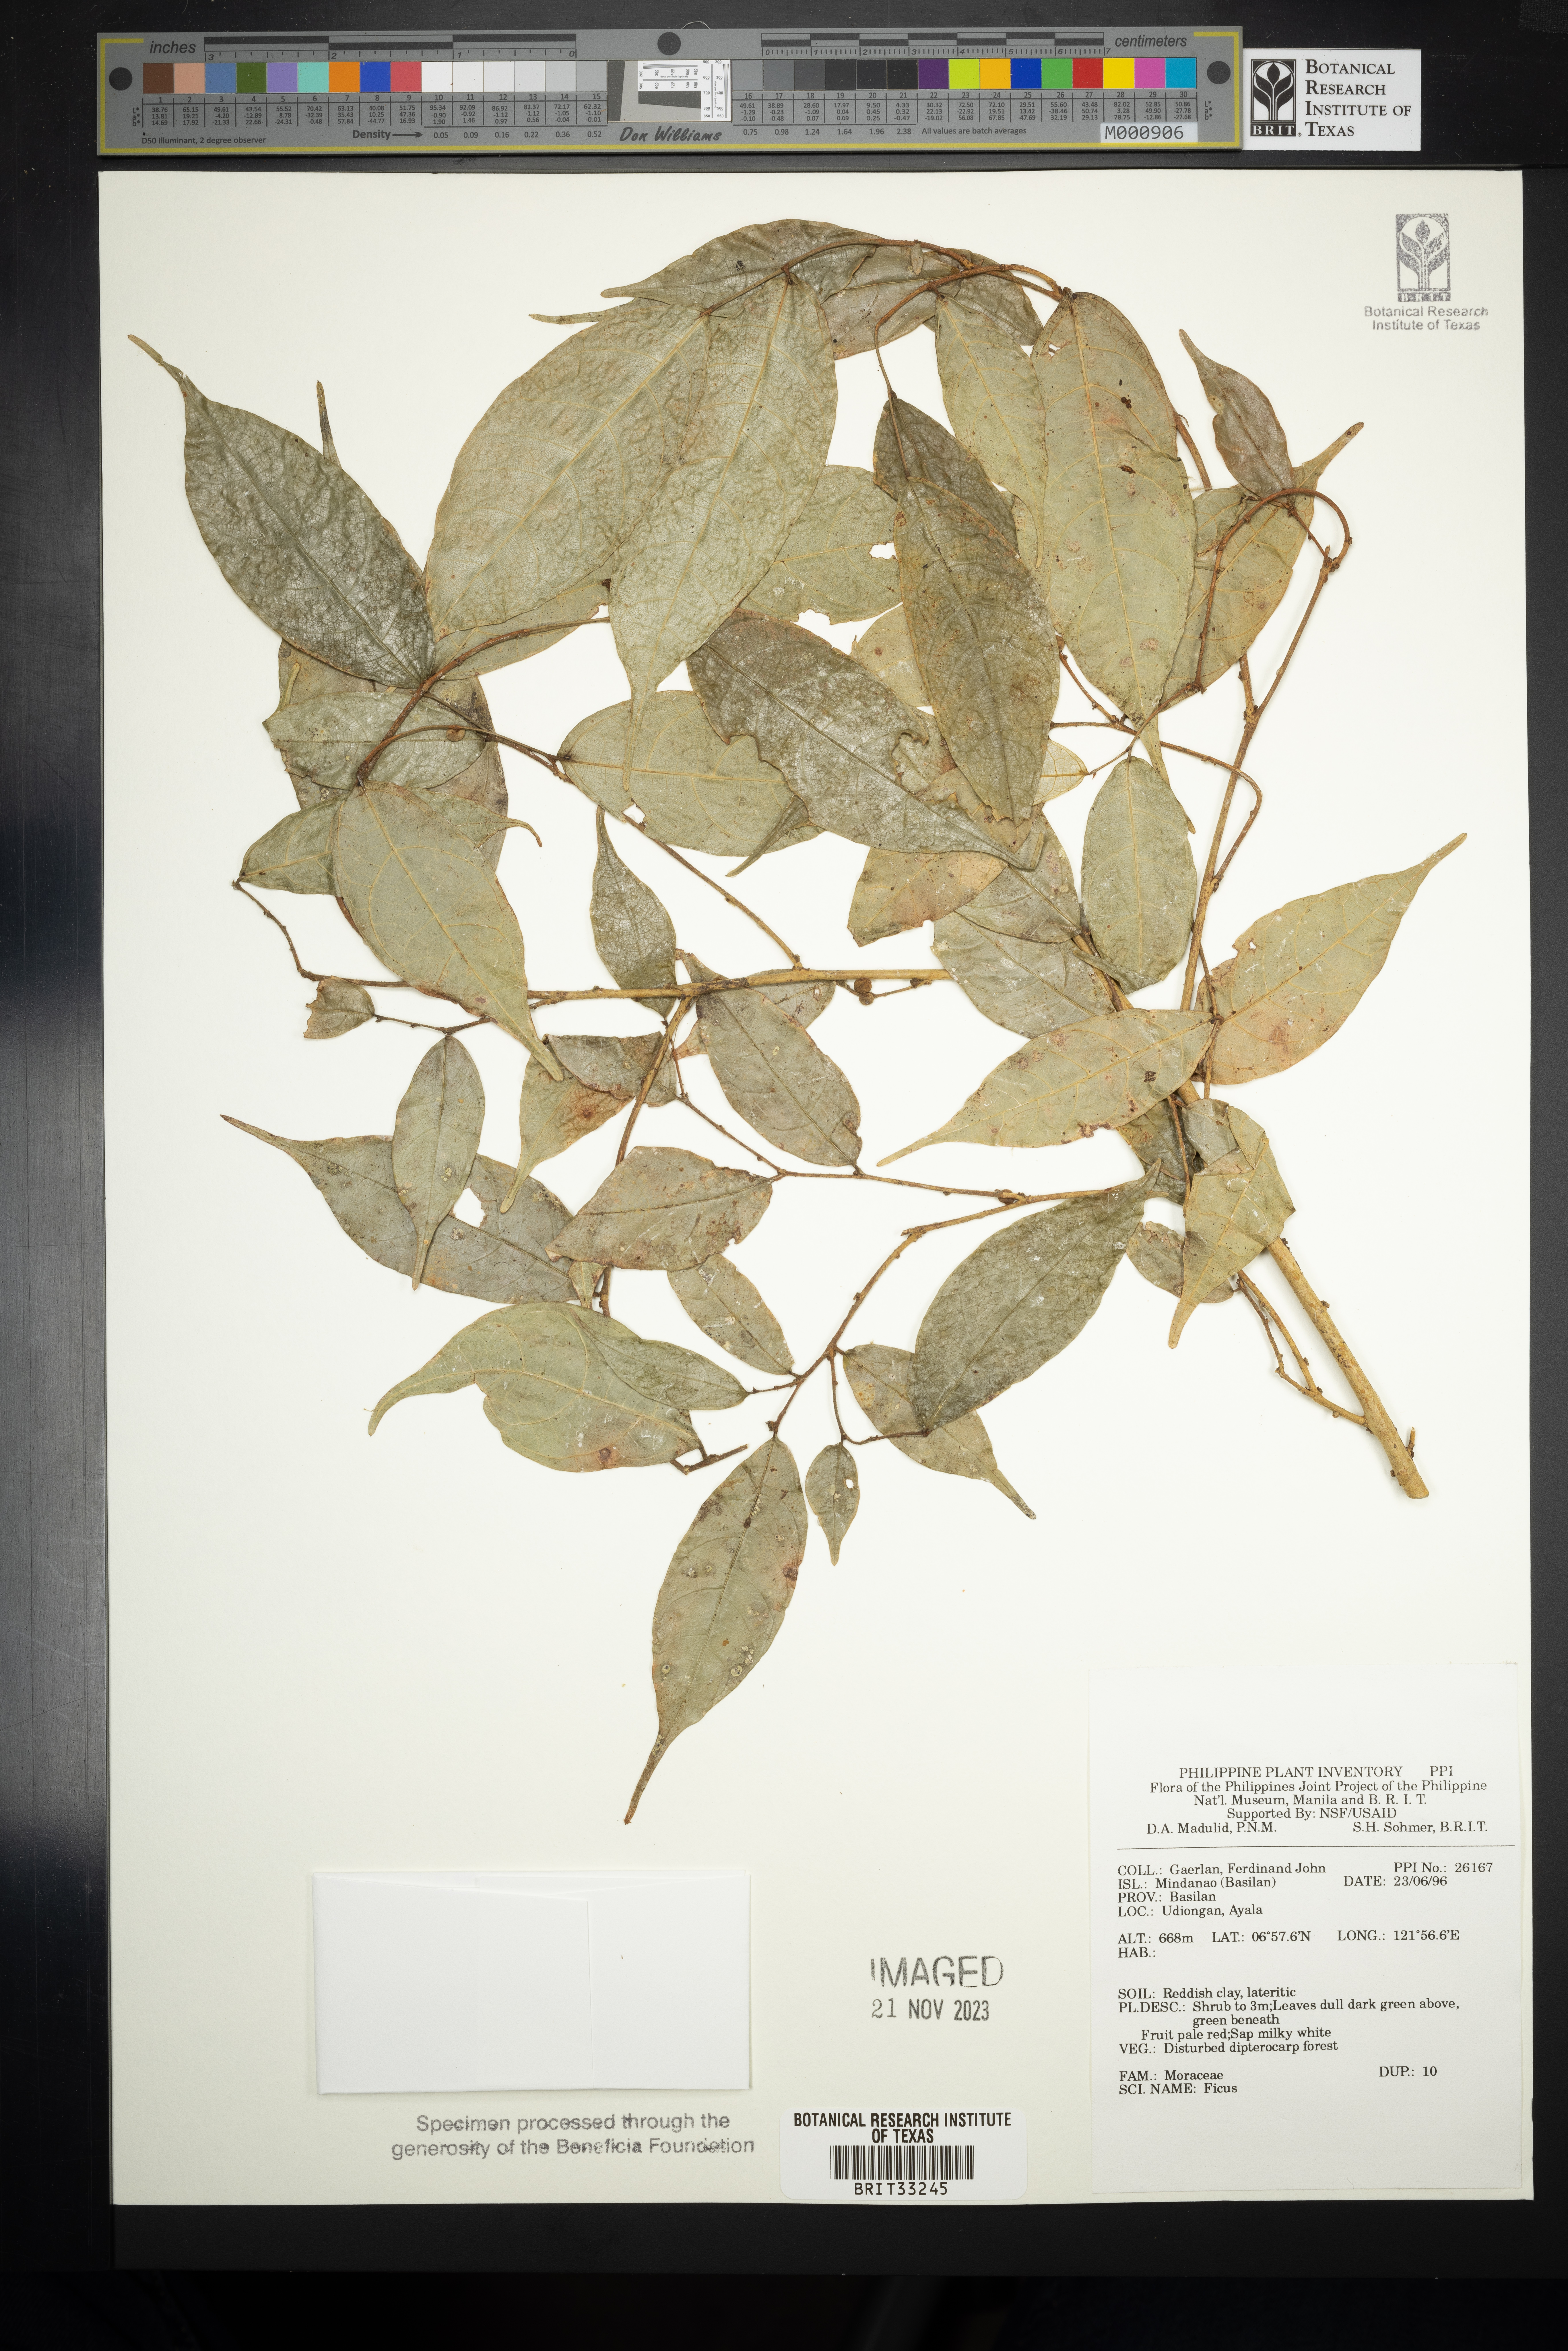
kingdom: Plantae
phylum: Tracheophyta
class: Magnoliopsida
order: Rosales
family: Moraceae
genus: Ficus
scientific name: Ficus
